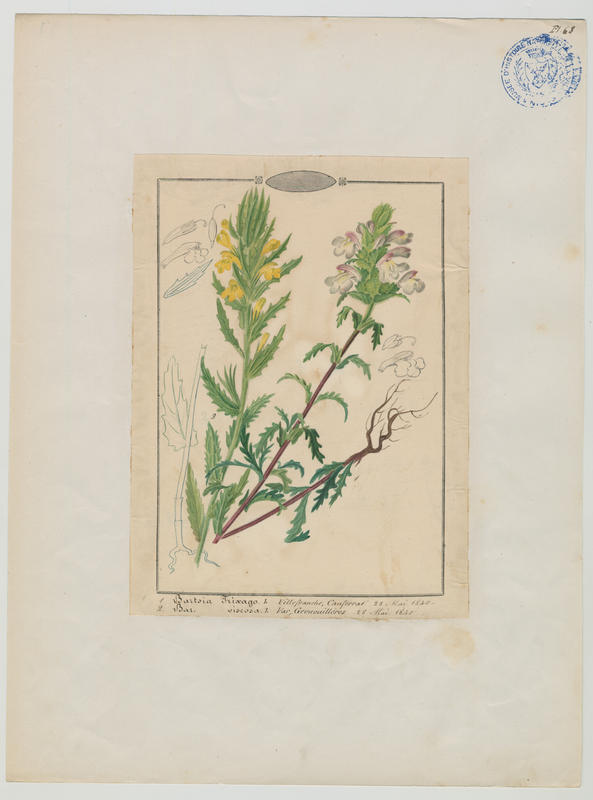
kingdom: Plantae
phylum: Tracheophyta
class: Magnoliopsida
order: Lamiales
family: Orobanchaceae
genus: Bellardia
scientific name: Bellardia viscosa
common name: Sticky parentucellia
